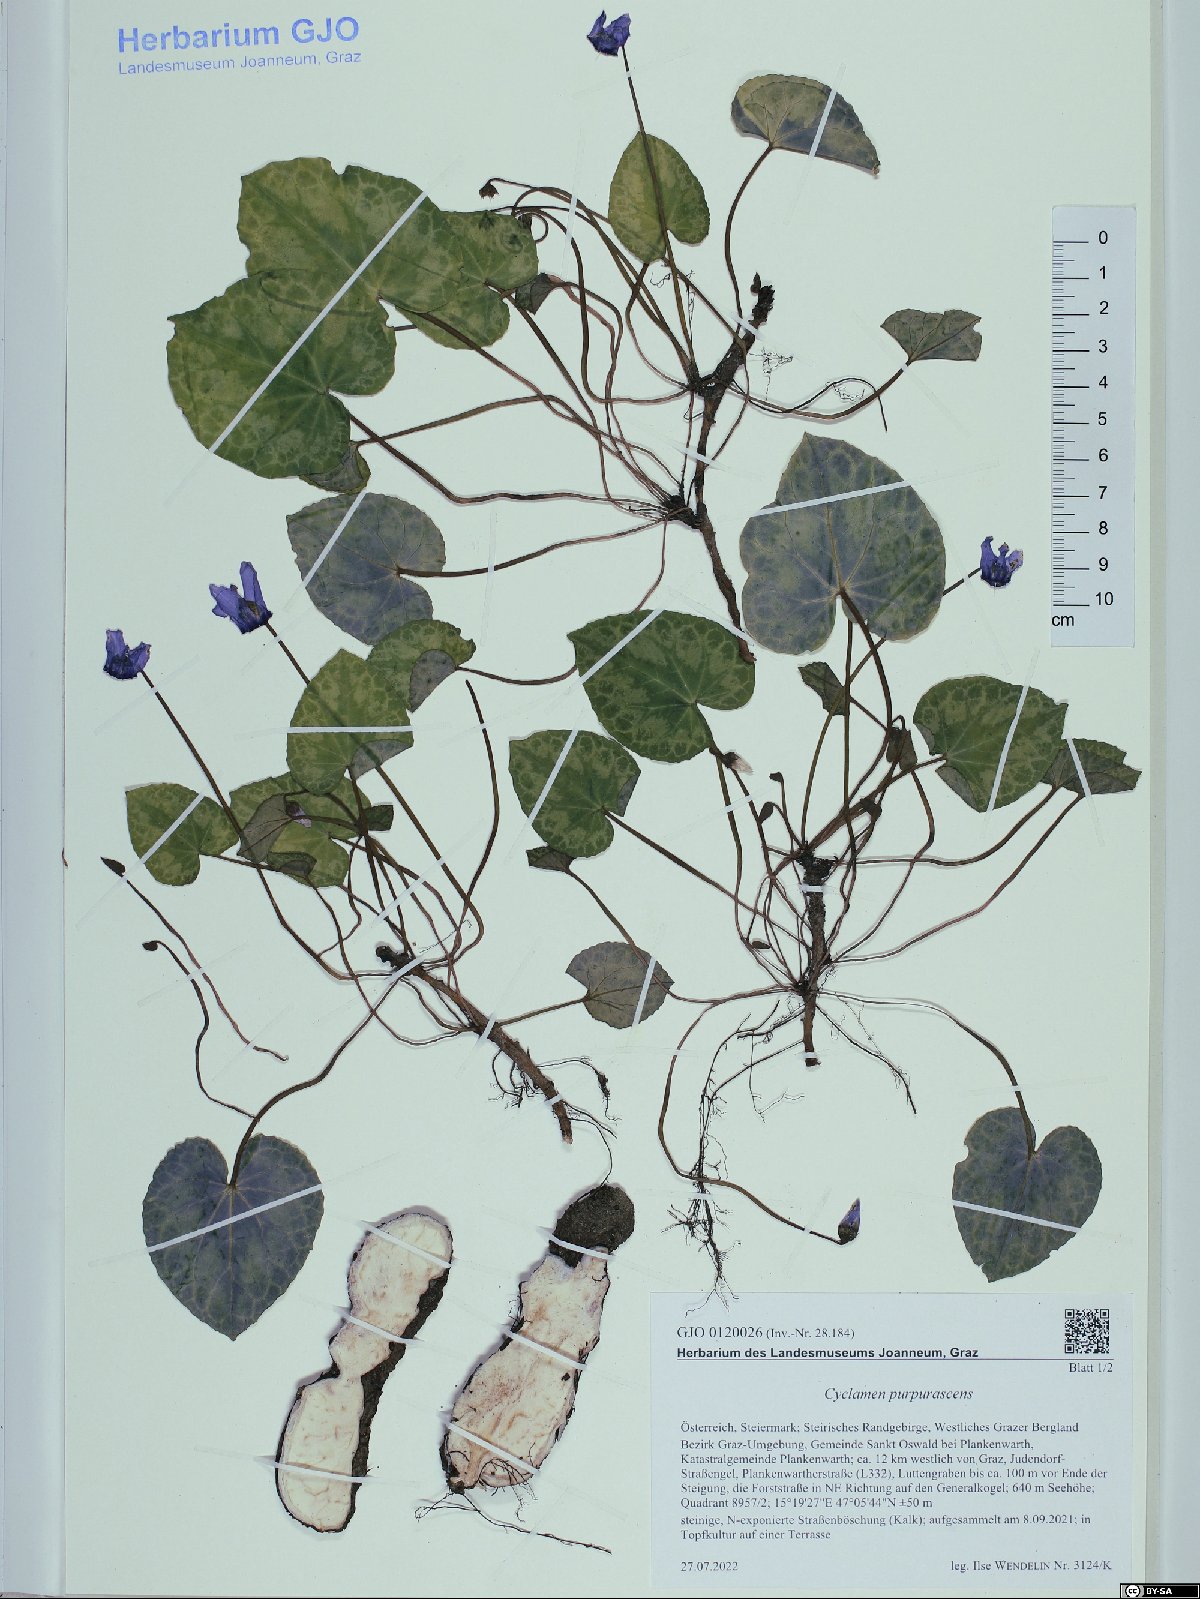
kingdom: Plantae
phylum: Tracheophyta
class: Magnoliopsida
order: Ericales
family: Primulaceae
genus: Cyclamen
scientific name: Cyclamen purpurascens
